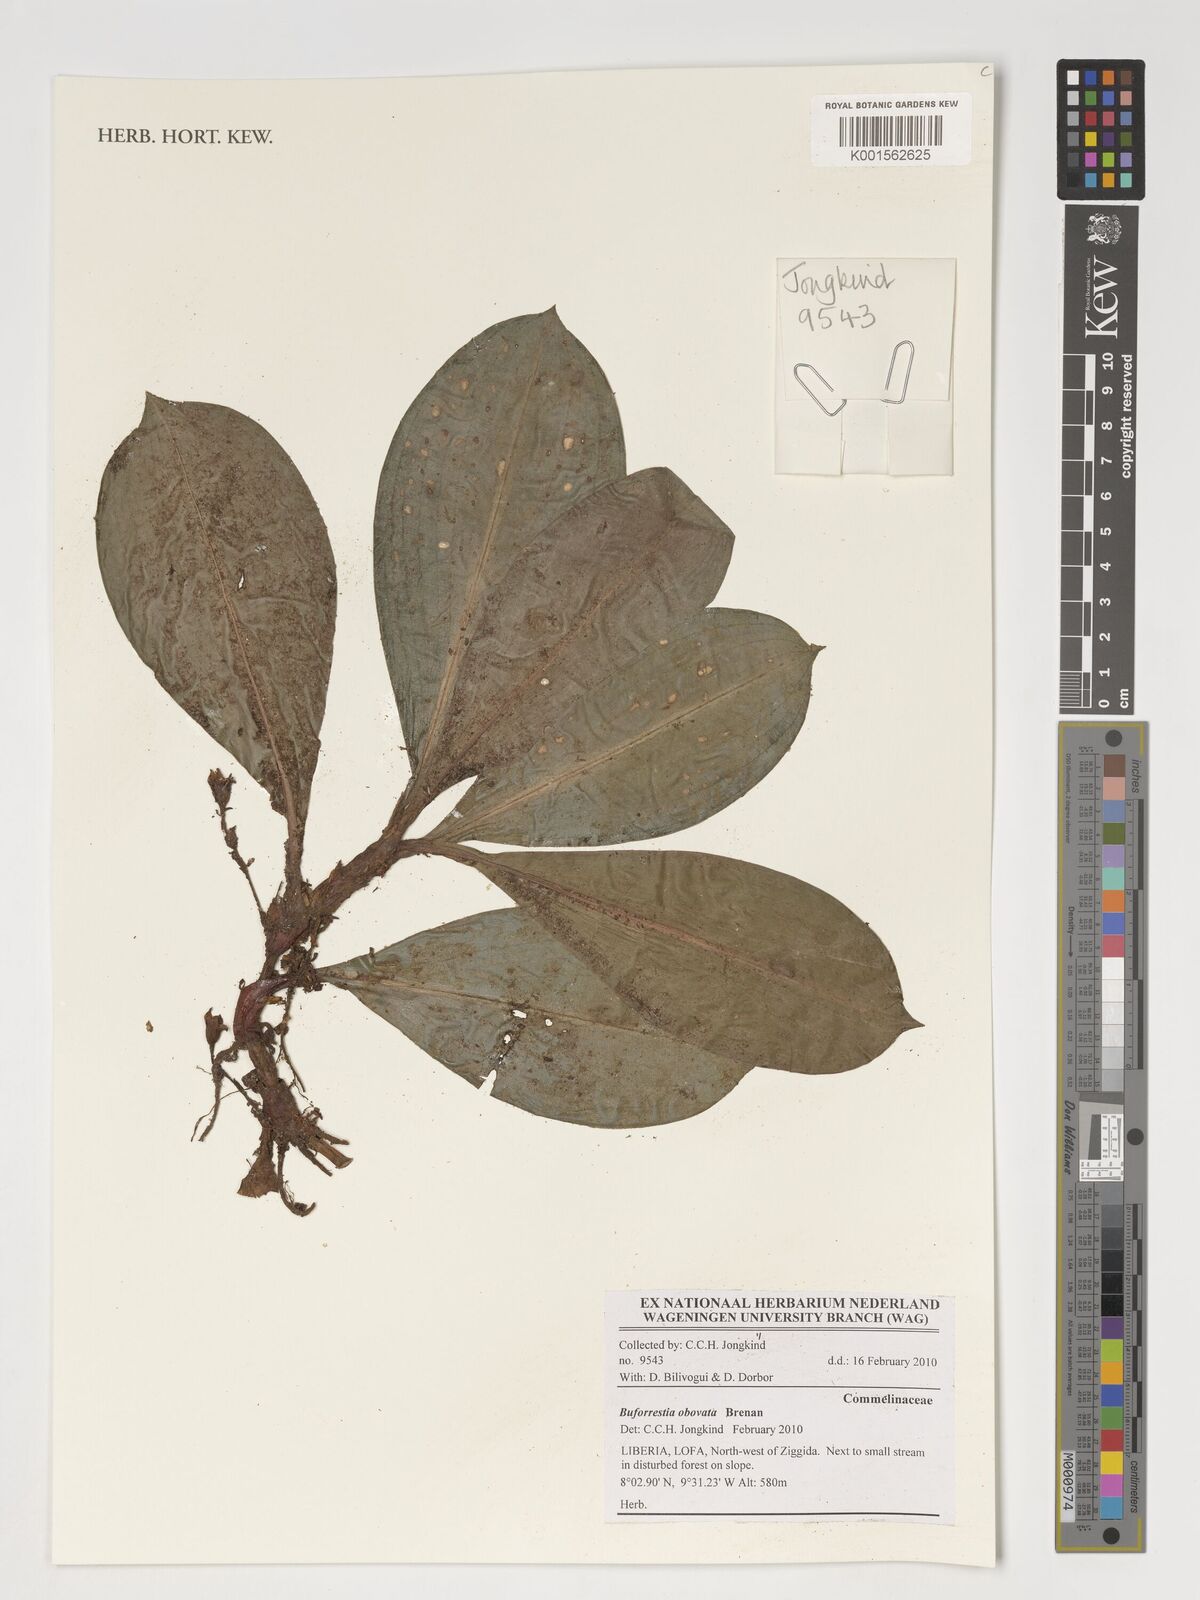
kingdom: Plantae
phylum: Tracheophyta
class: Liliopsida
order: Commelinales
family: Commelinaceae
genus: Buforrestia
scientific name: Buforrestia obovata
